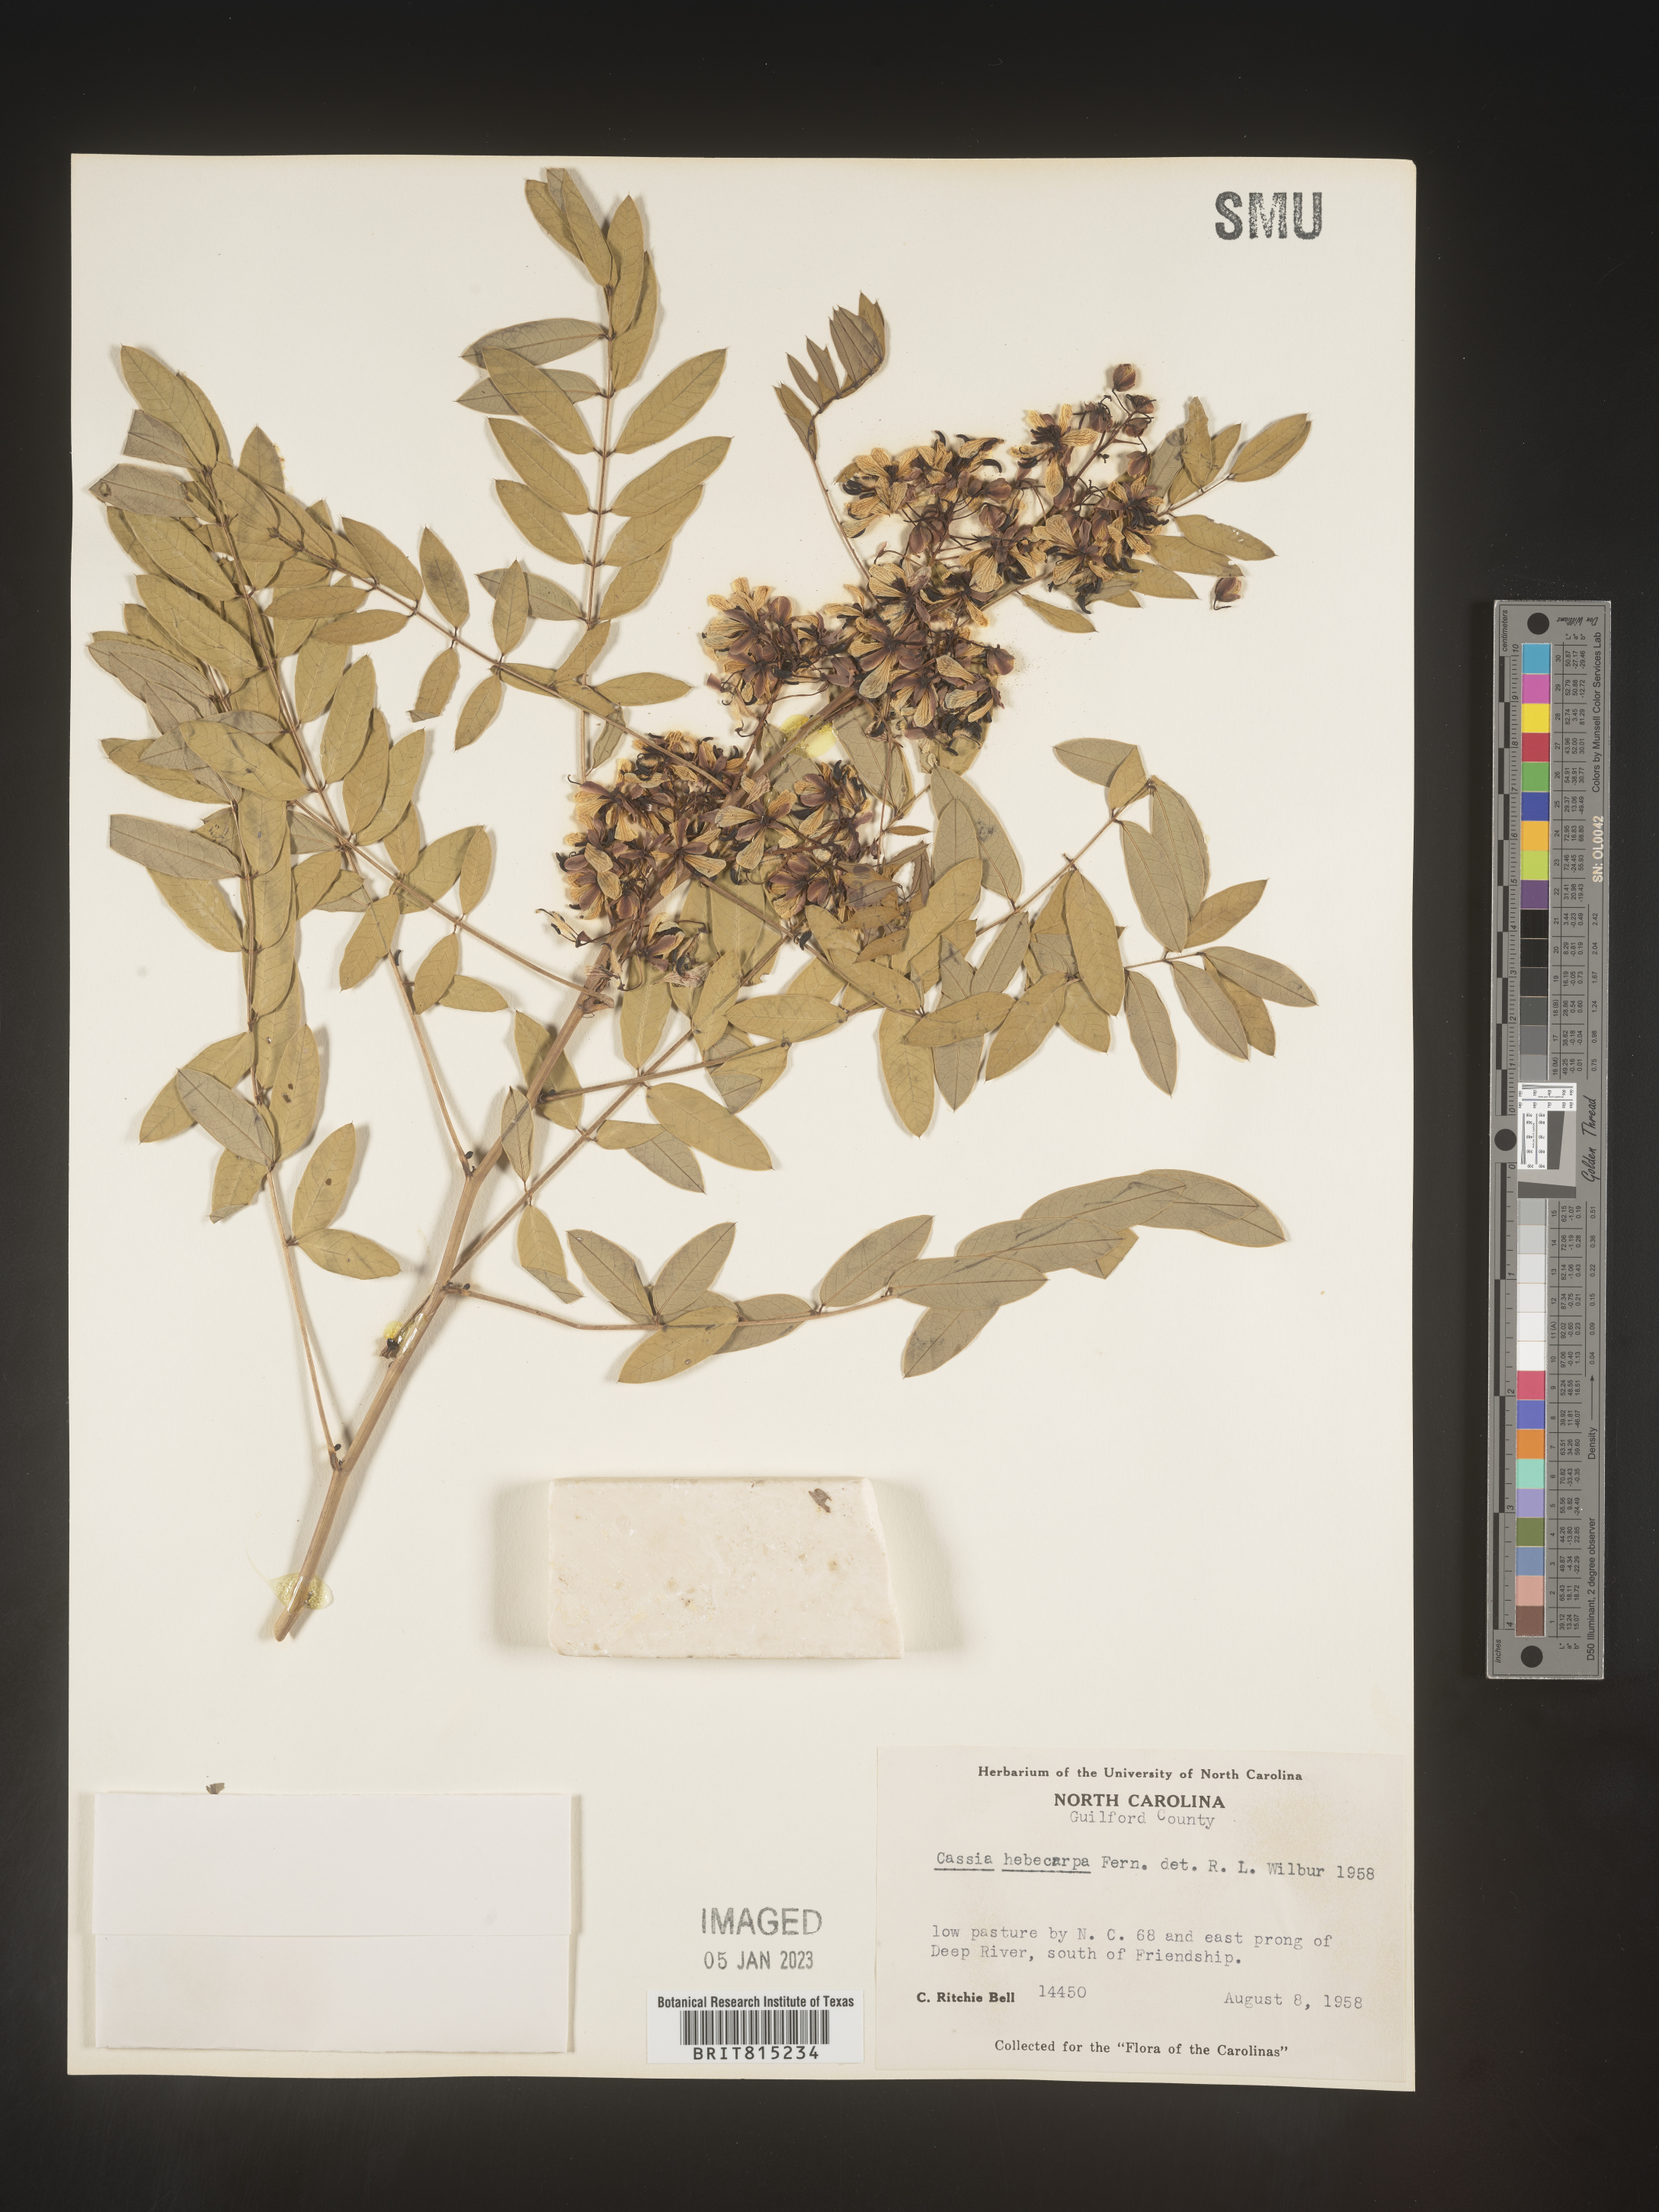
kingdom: Plantae
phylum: Tracheophyta
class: Magnoliopsida
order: Fabales
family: Fabaceae
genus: Senna
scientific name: Senna hebecarpa
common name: Wild senna
